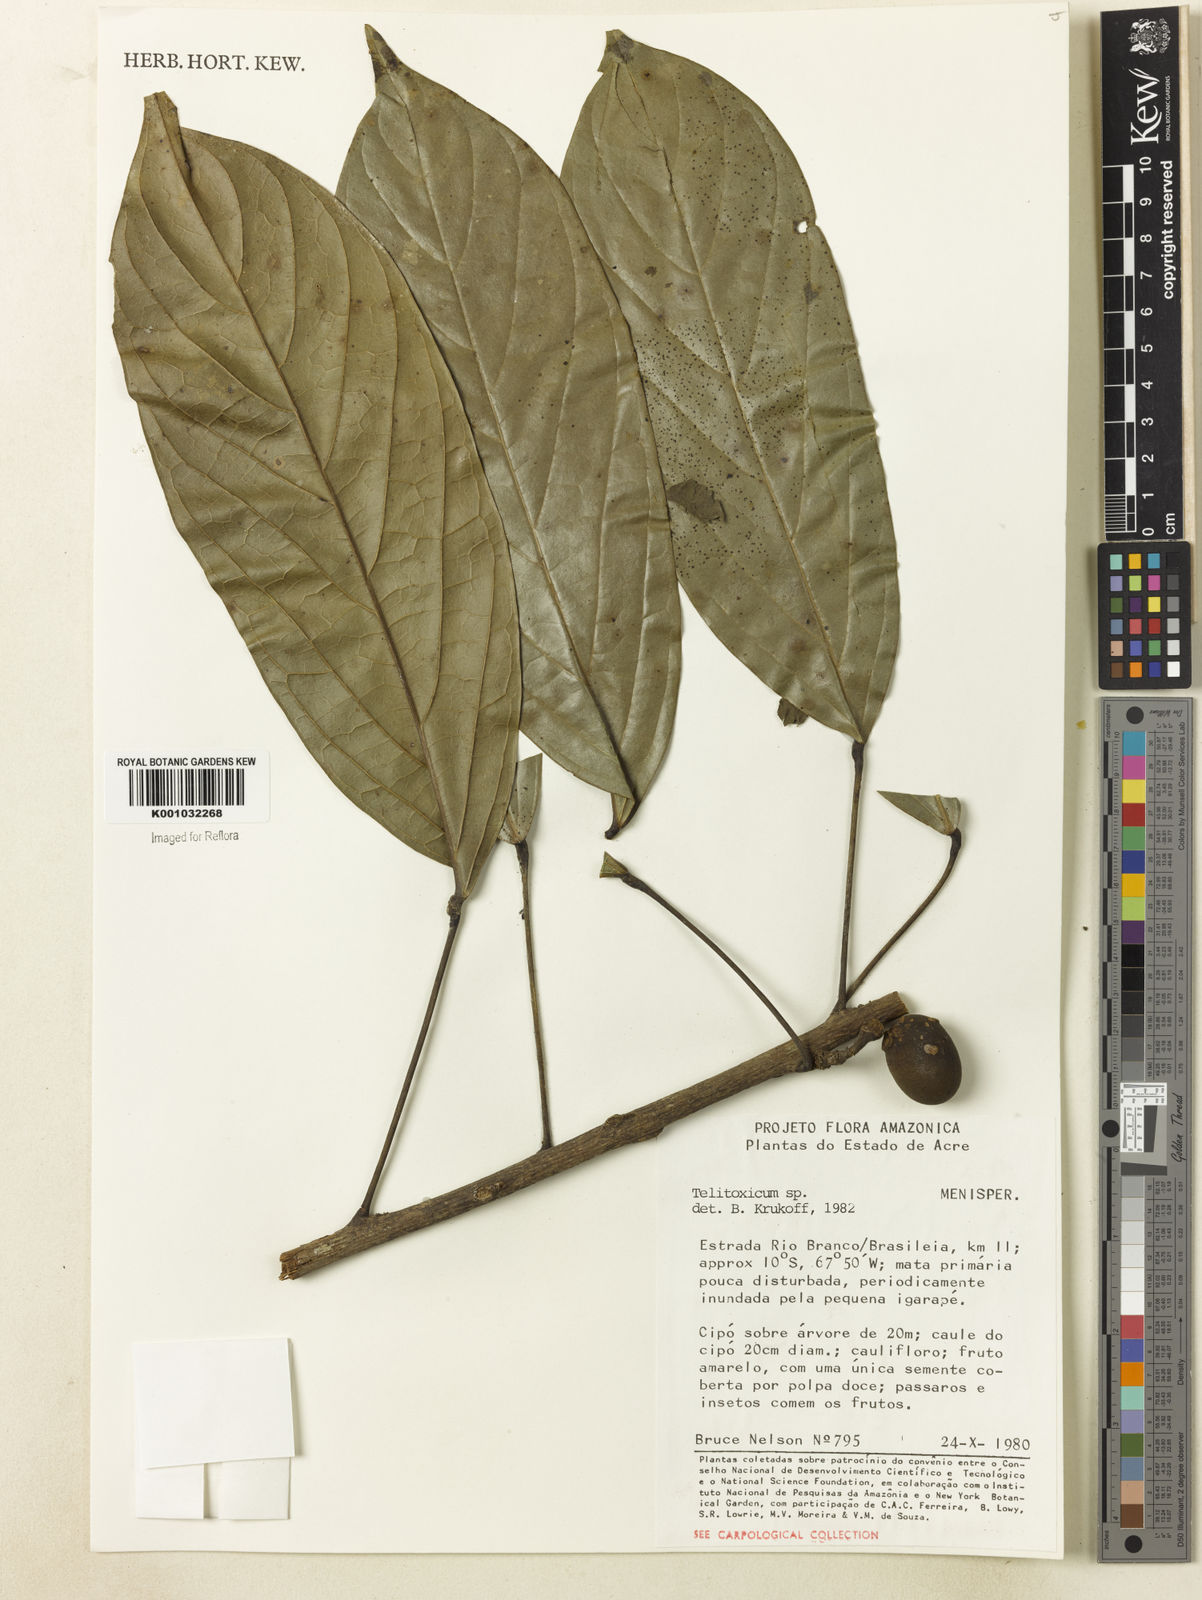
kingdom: Plantae
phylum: Tracheophyta
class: Magnoliopsida
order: Ranunculales
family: Menispermaceae
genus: Telitoxicum
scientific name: Telitoxicum
